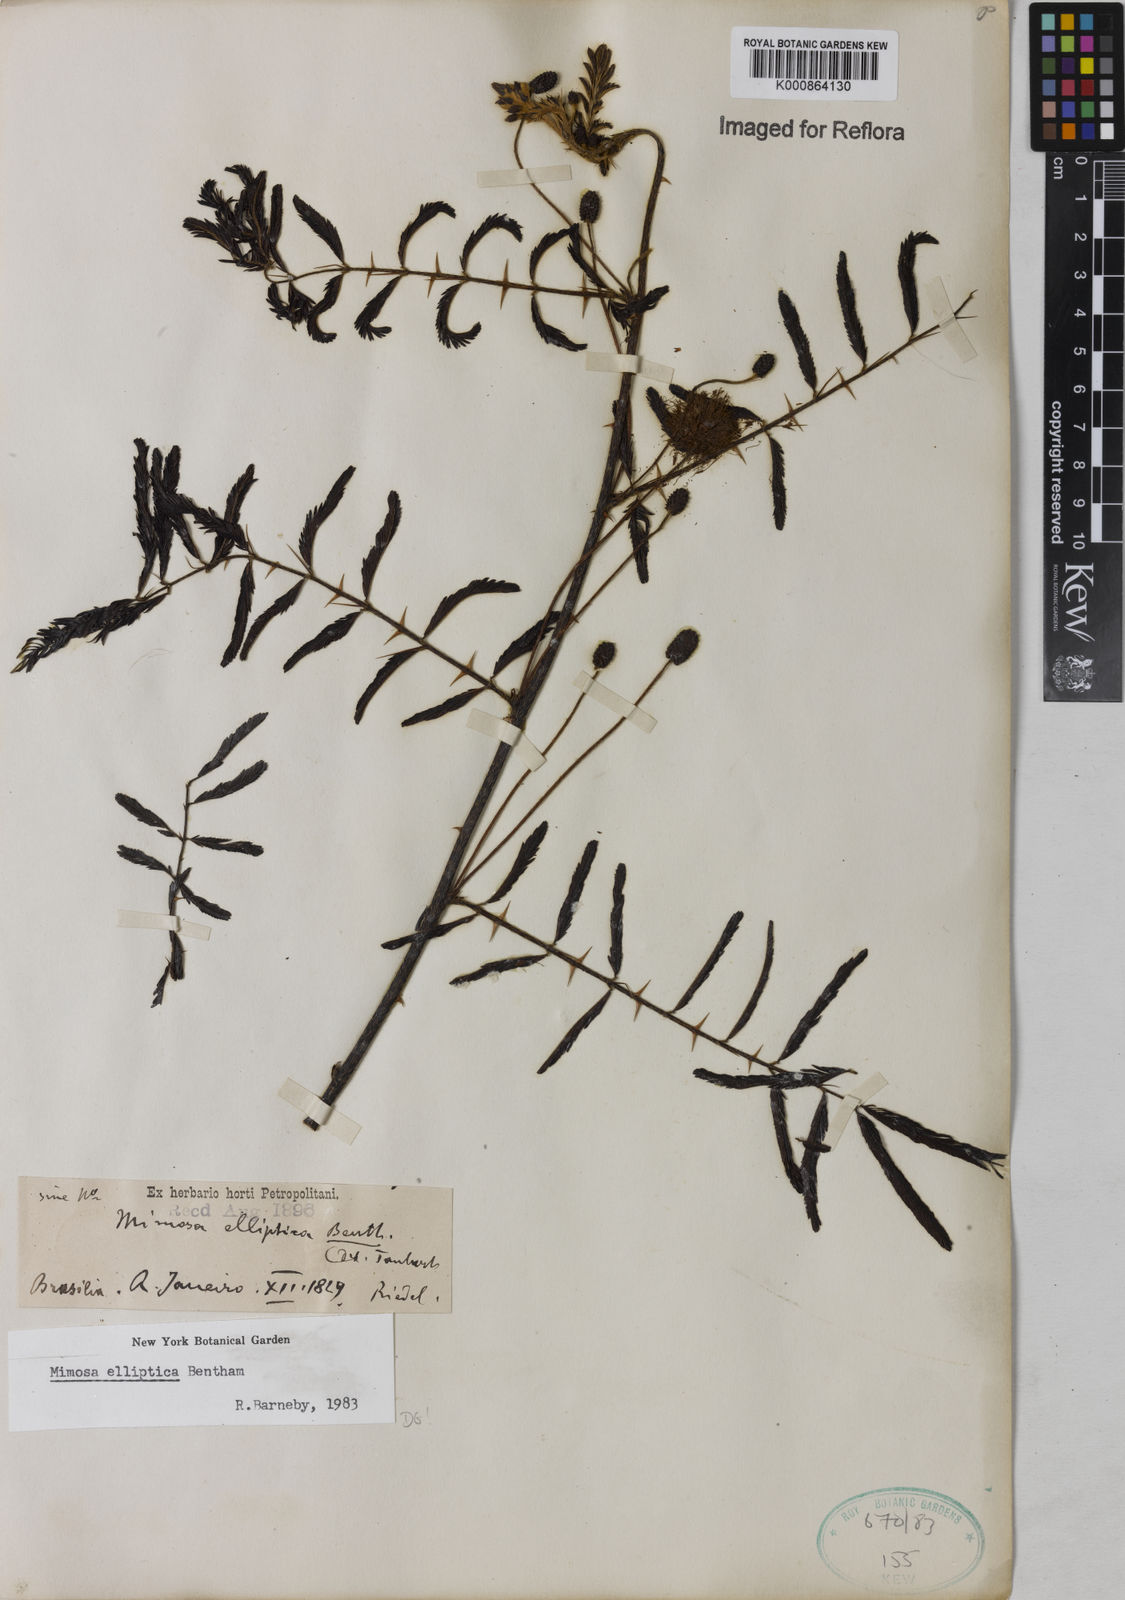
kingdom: Plantae
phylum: Tracheophyta
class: Magnoliopsida
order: Fabales
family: Fabaceae
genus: Mimosa
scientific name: Mimosa elliptica
